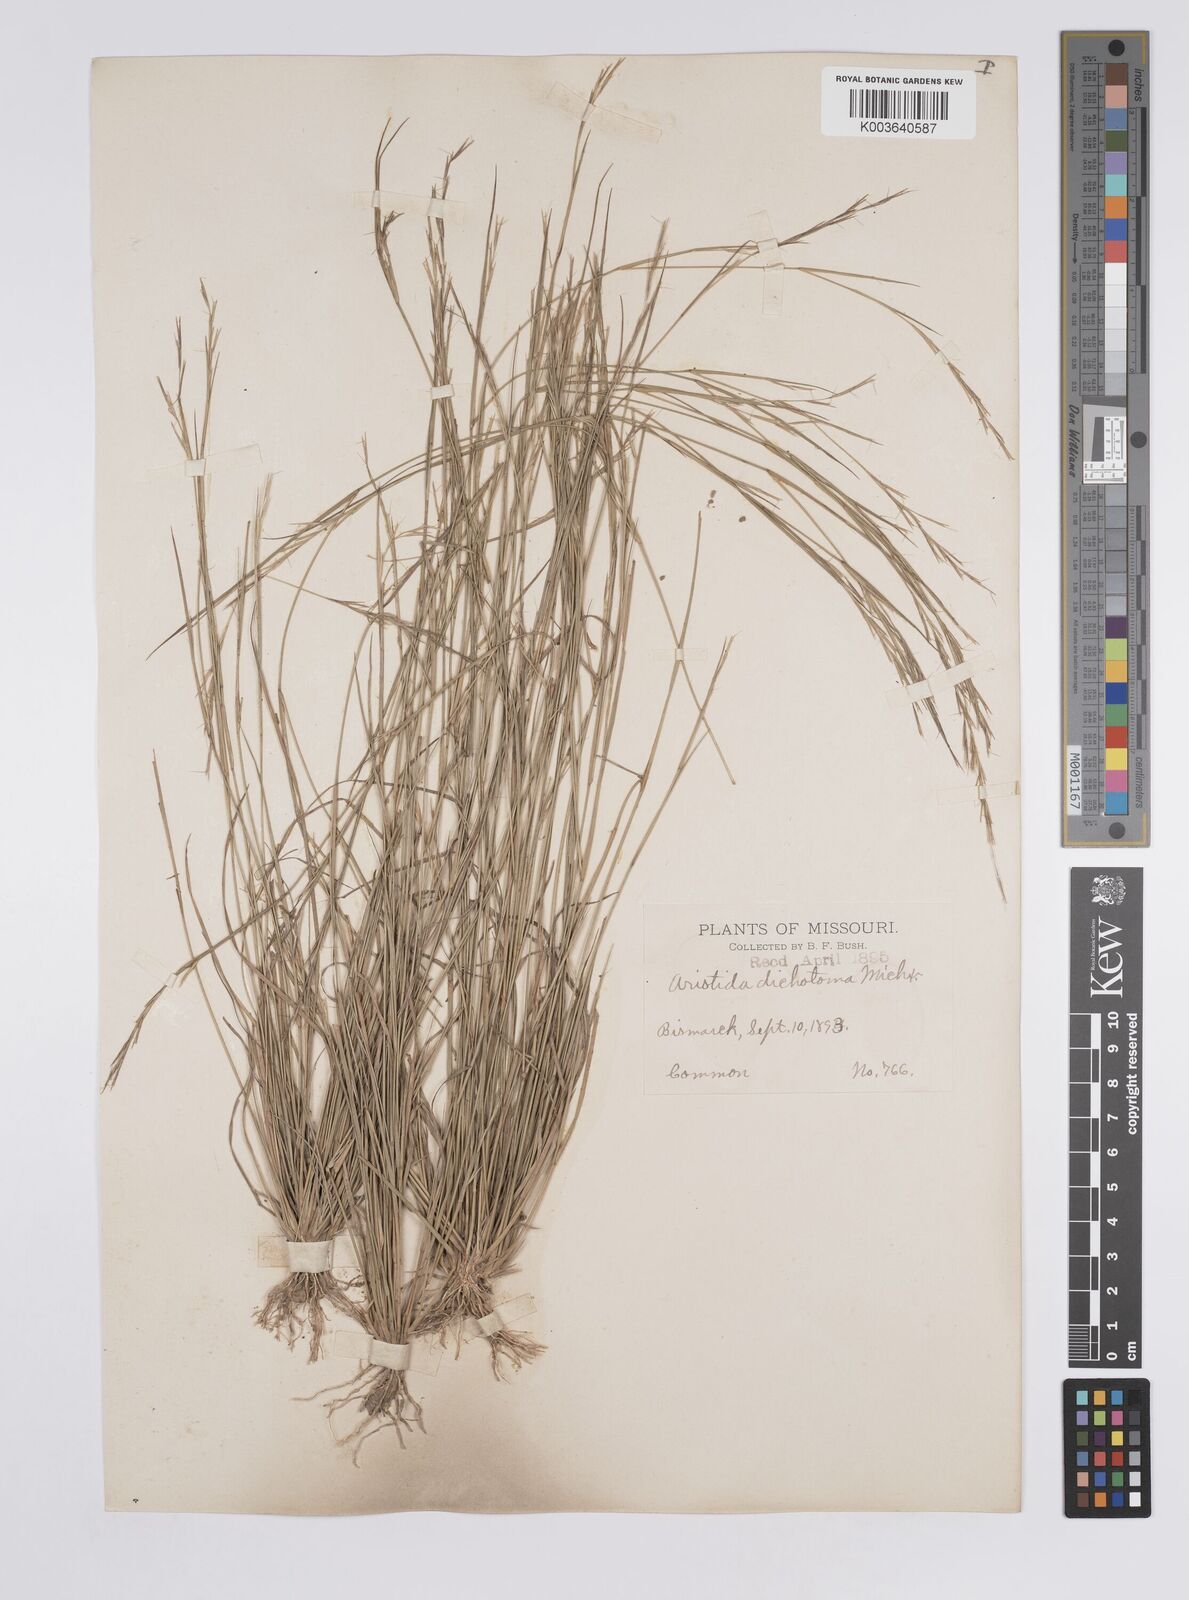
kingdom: Plantae
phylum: Tracheophyta
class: Liliopsida
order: Poales
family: Poaceae
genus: Aristida
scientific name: Aristida dichotoma
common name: Churchmouse three-awn
